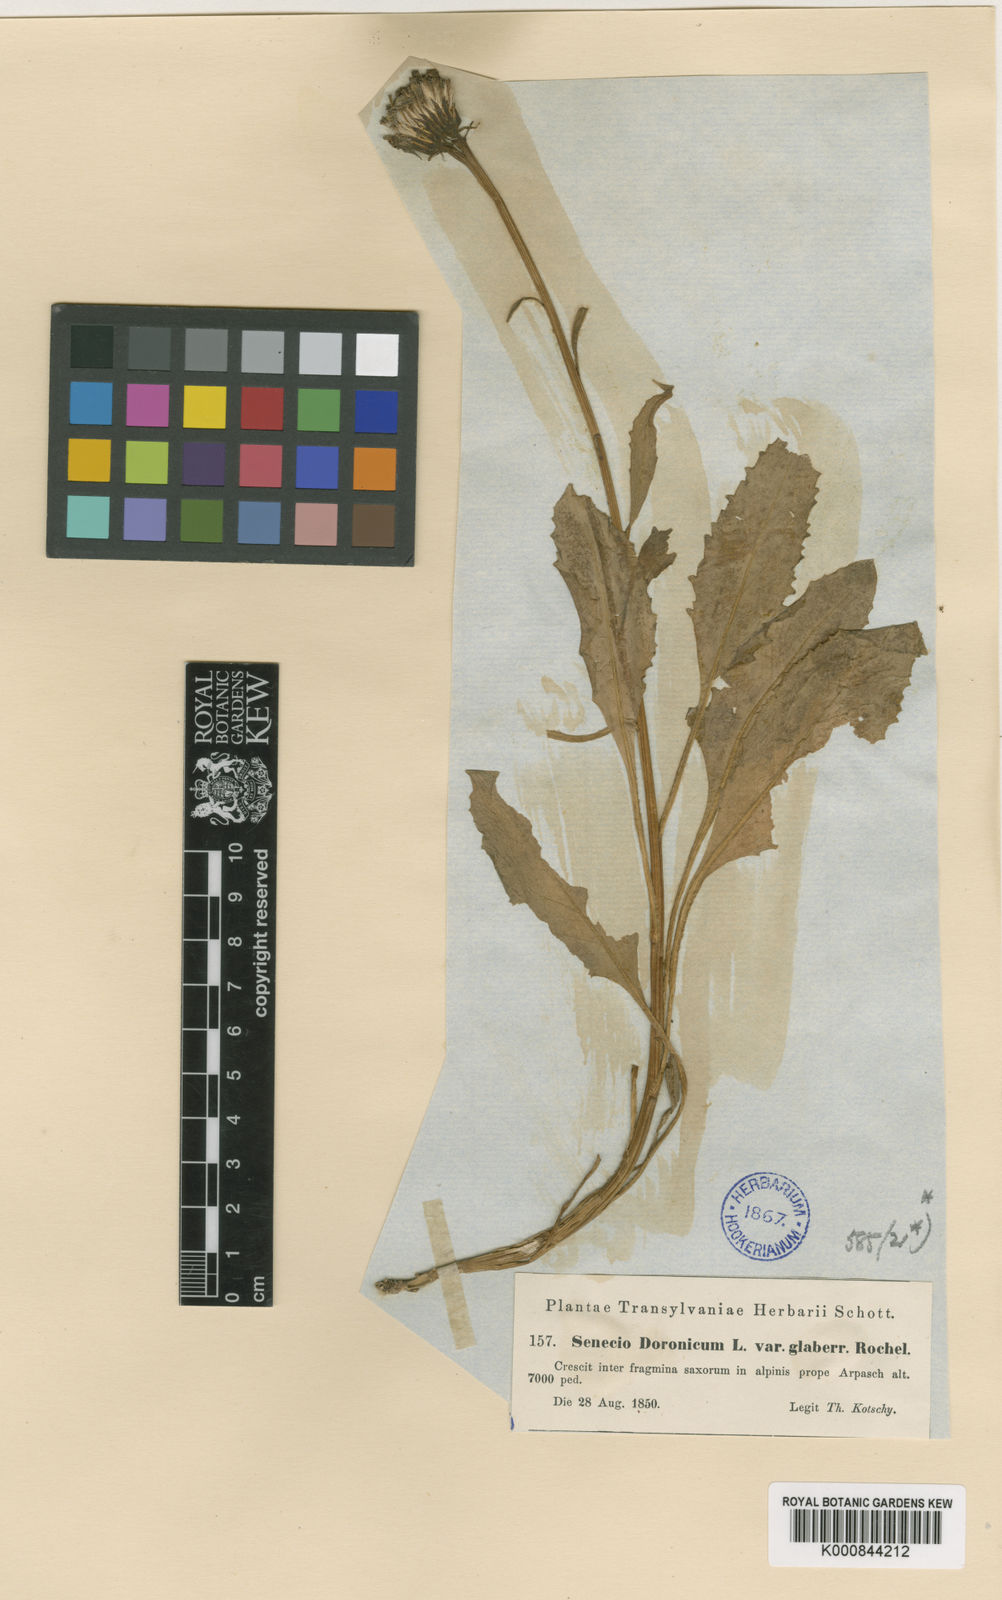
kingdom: Plantae
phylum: Tracheophyta
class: Magnoliopsida
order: Asterales
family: Asteraceae
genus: Senecio
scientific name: Senecio doronicum
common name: Chamois ragwort
